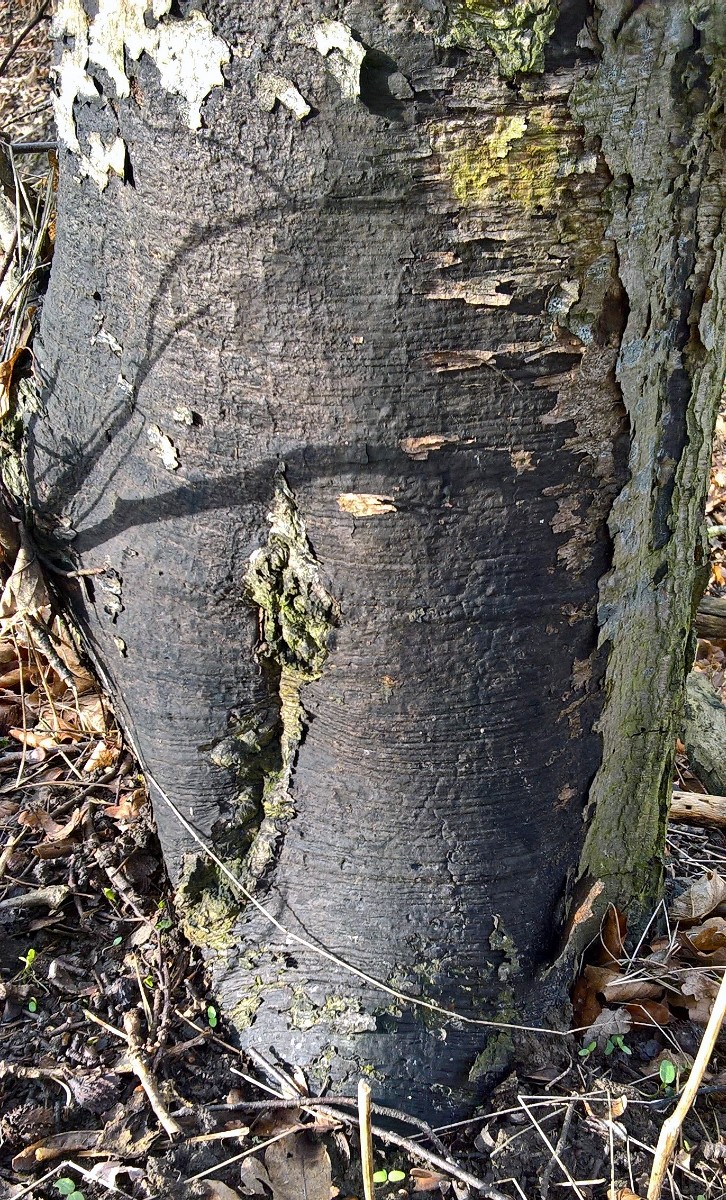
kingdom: Fungi
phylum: Ascomycota
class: Sordariomycetes
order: Xylariales
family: Diatrypaceae
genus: Eutypa
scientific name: Eutypa spinosa
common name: grov kulskorpe
